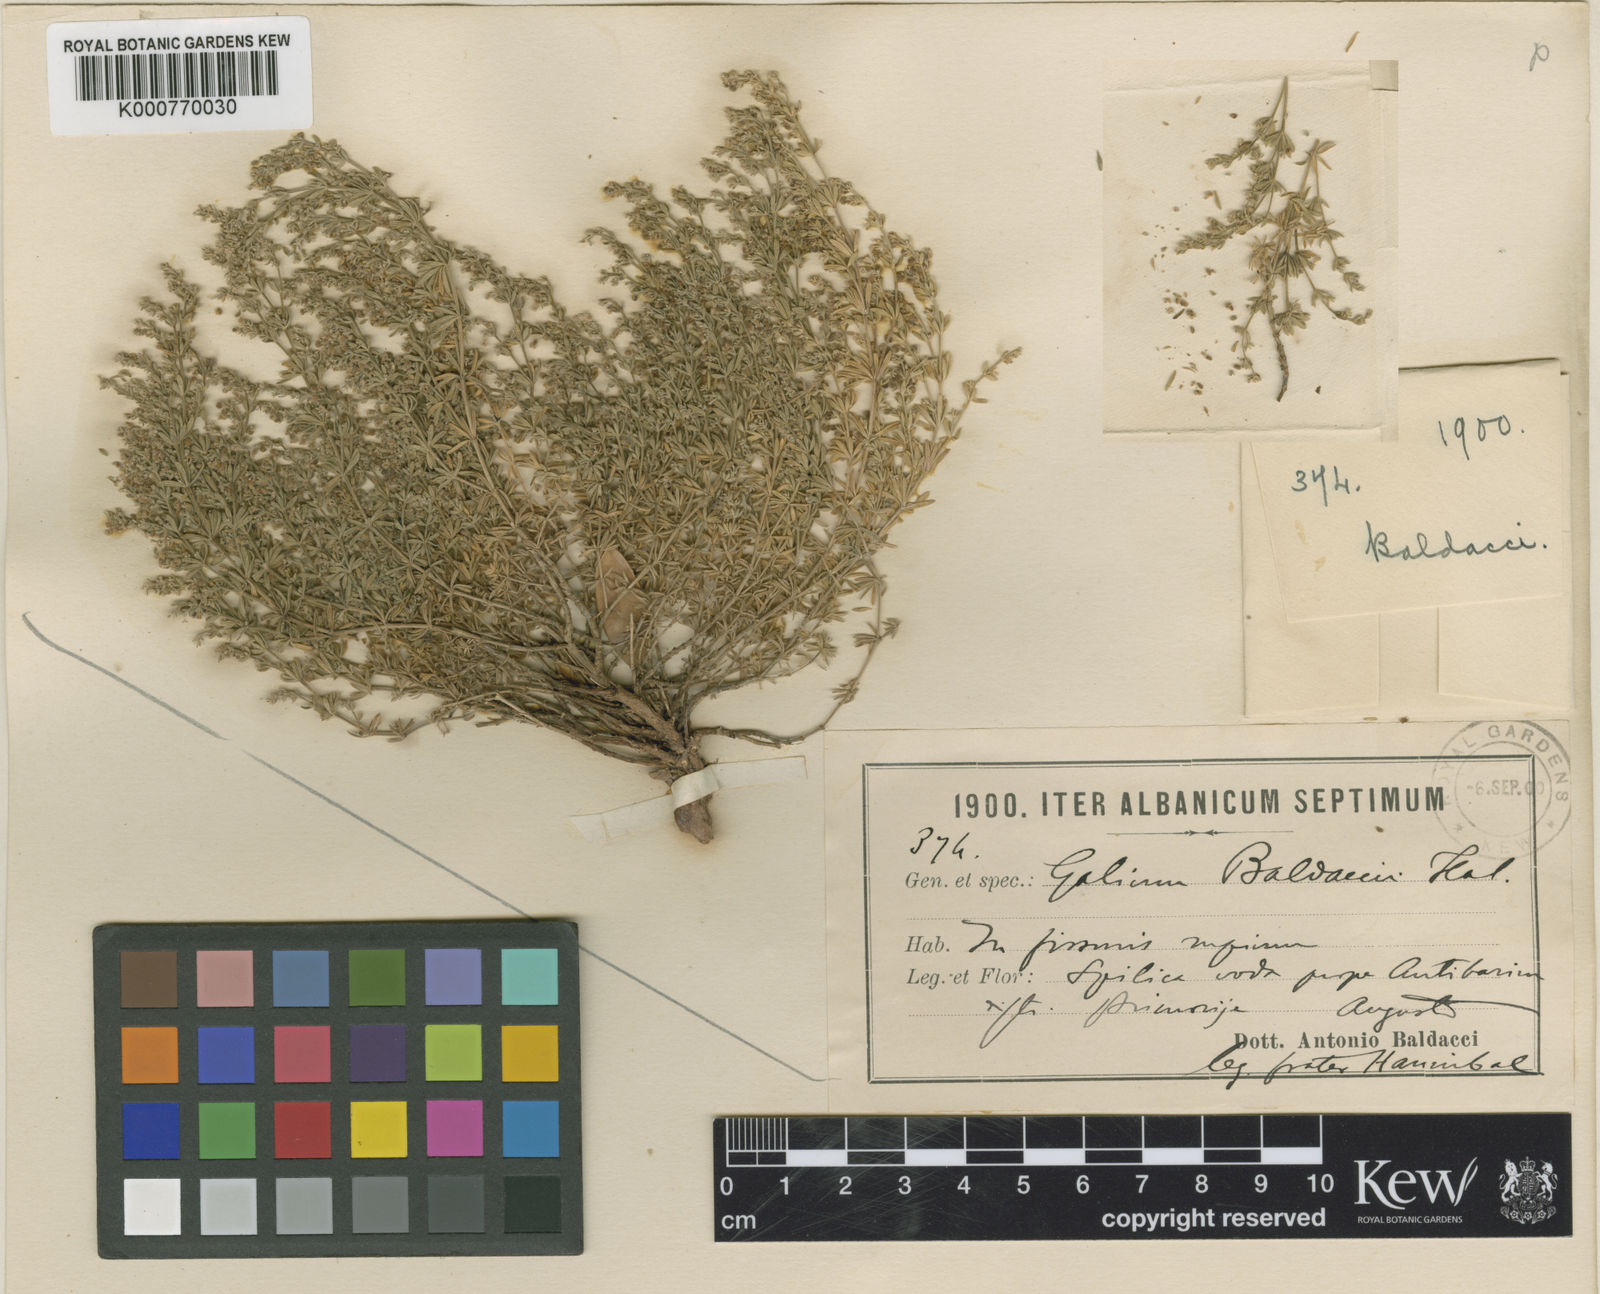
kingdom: Plantae
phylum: Tracheophyta
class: Magnoliopsida
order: Gentianales
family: Rubiaceae
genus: Asperula
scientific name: Asperula
